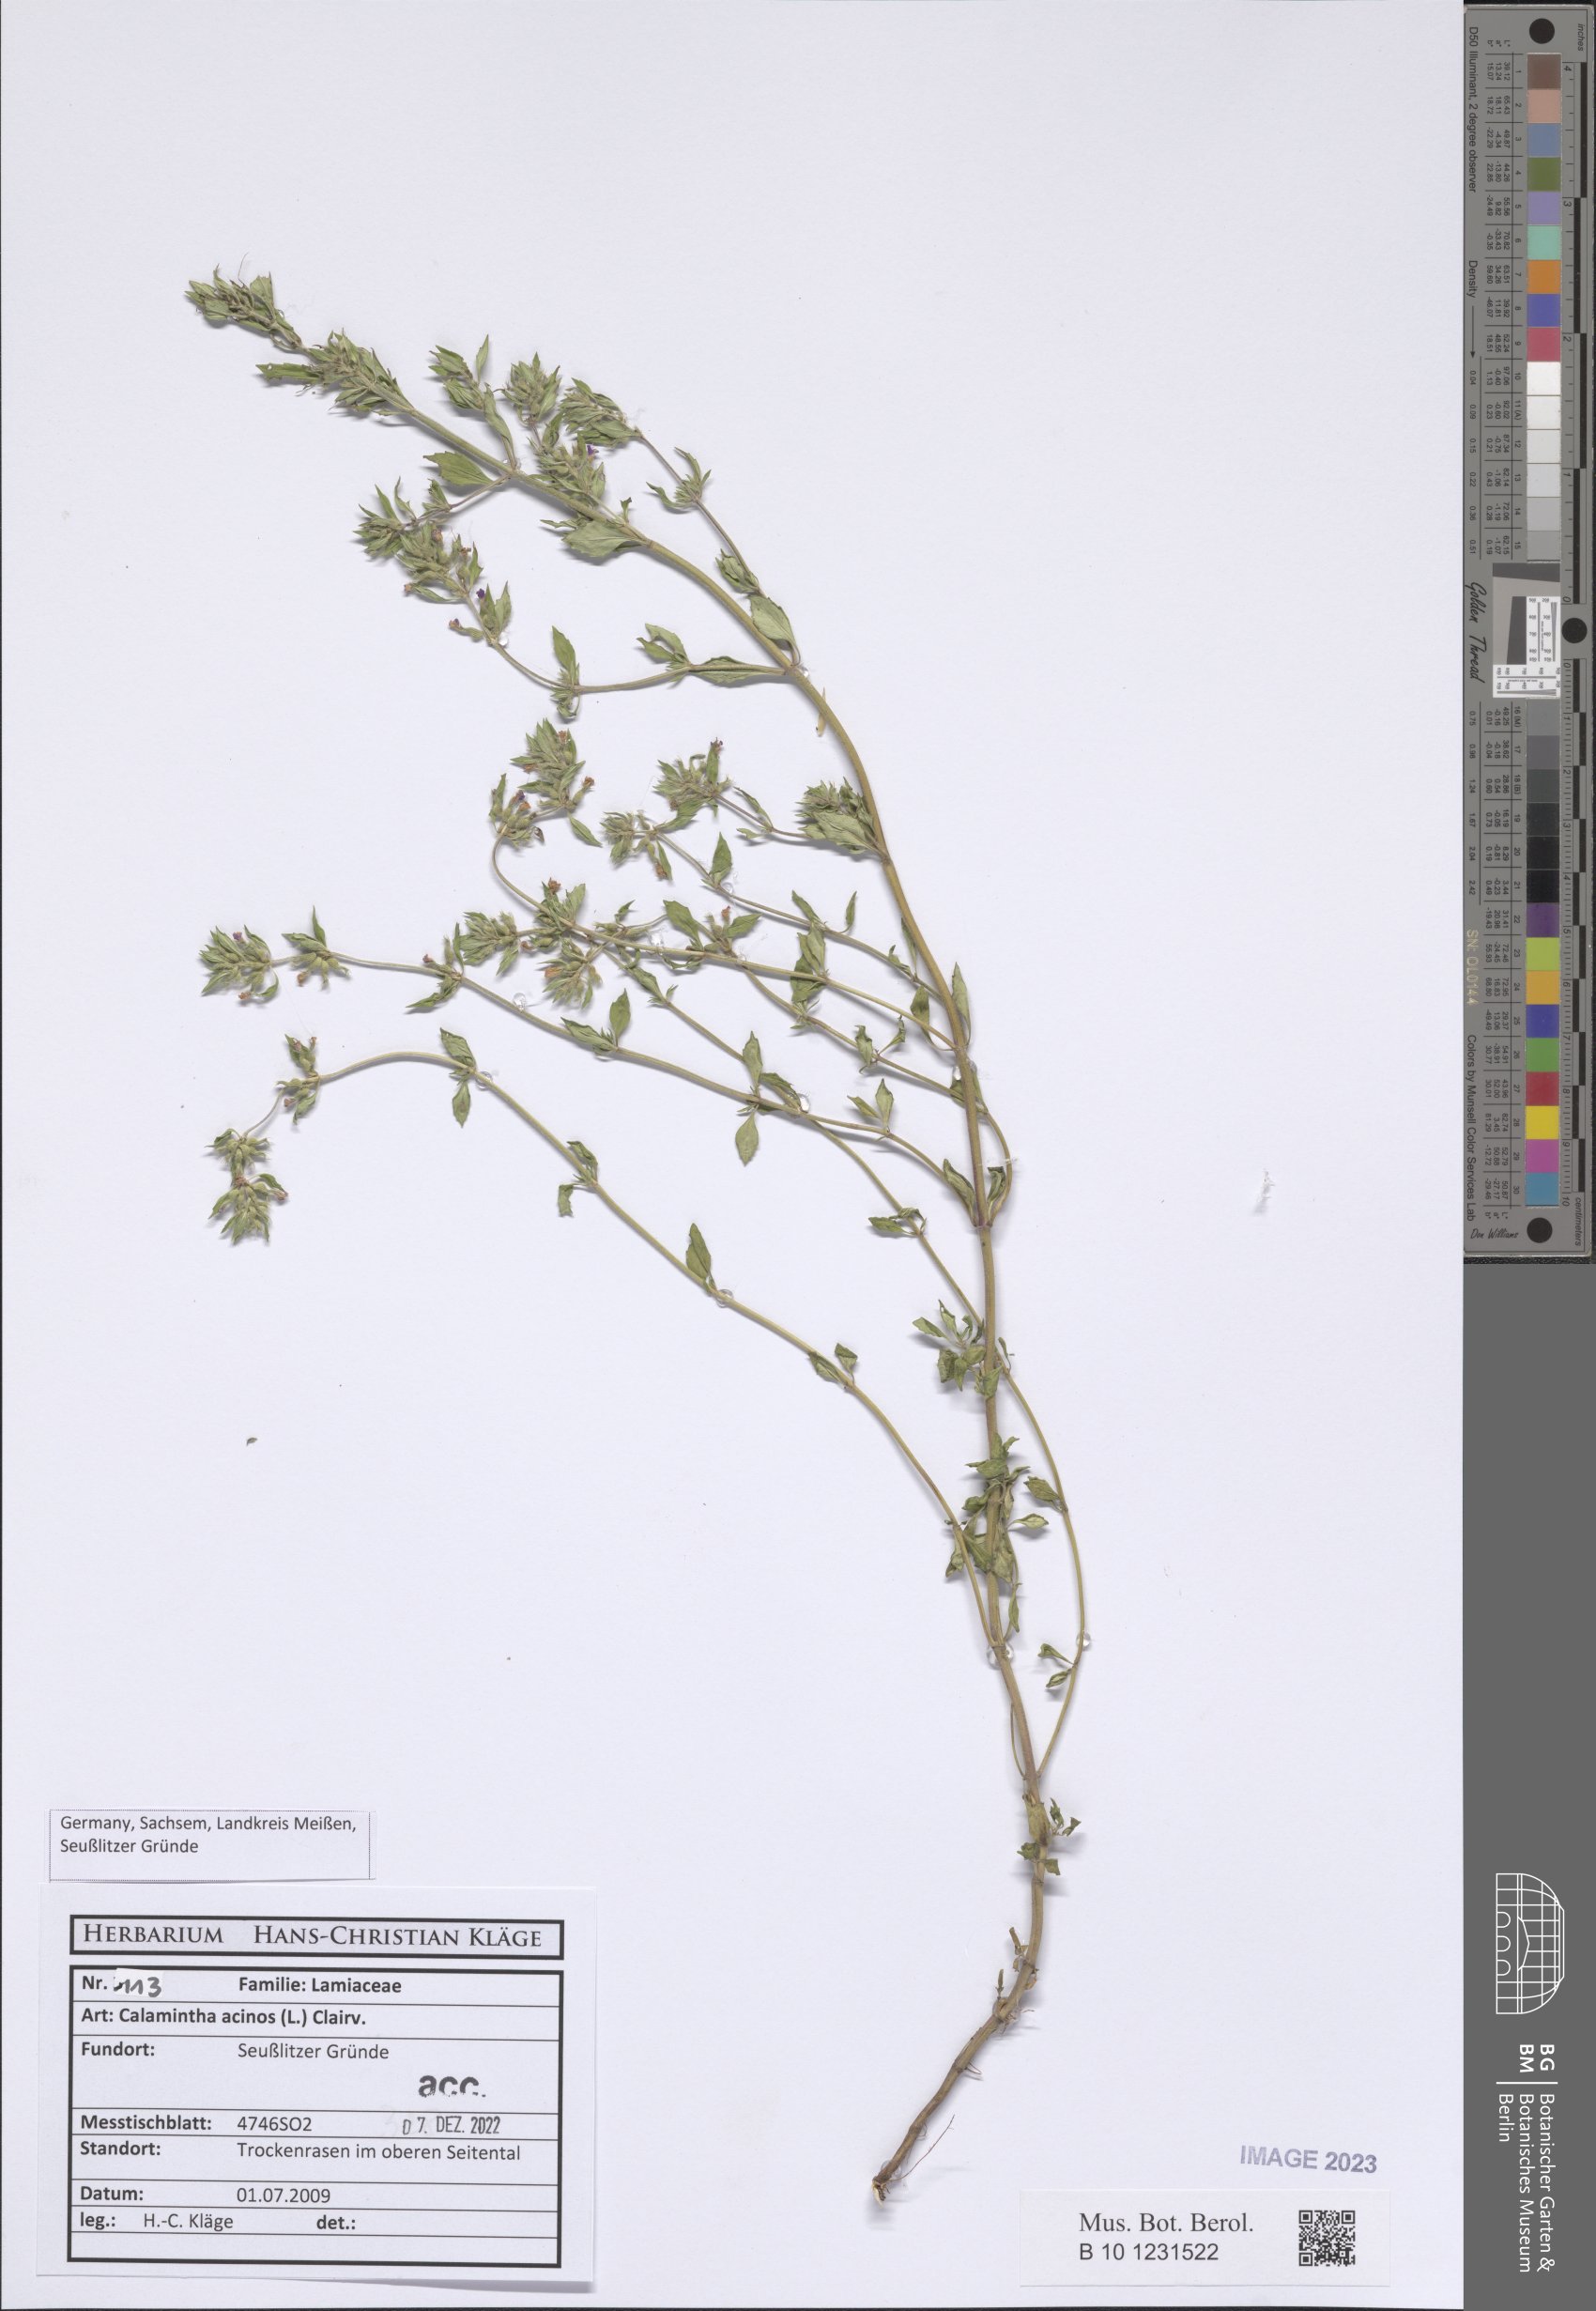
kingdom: Plantae
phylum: Tracheophyta
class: Magnoliopsida
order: Lamiales
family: Lamiaceae
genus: Clinopodium
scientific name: Clinopodium acinos
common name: Basil thyme
